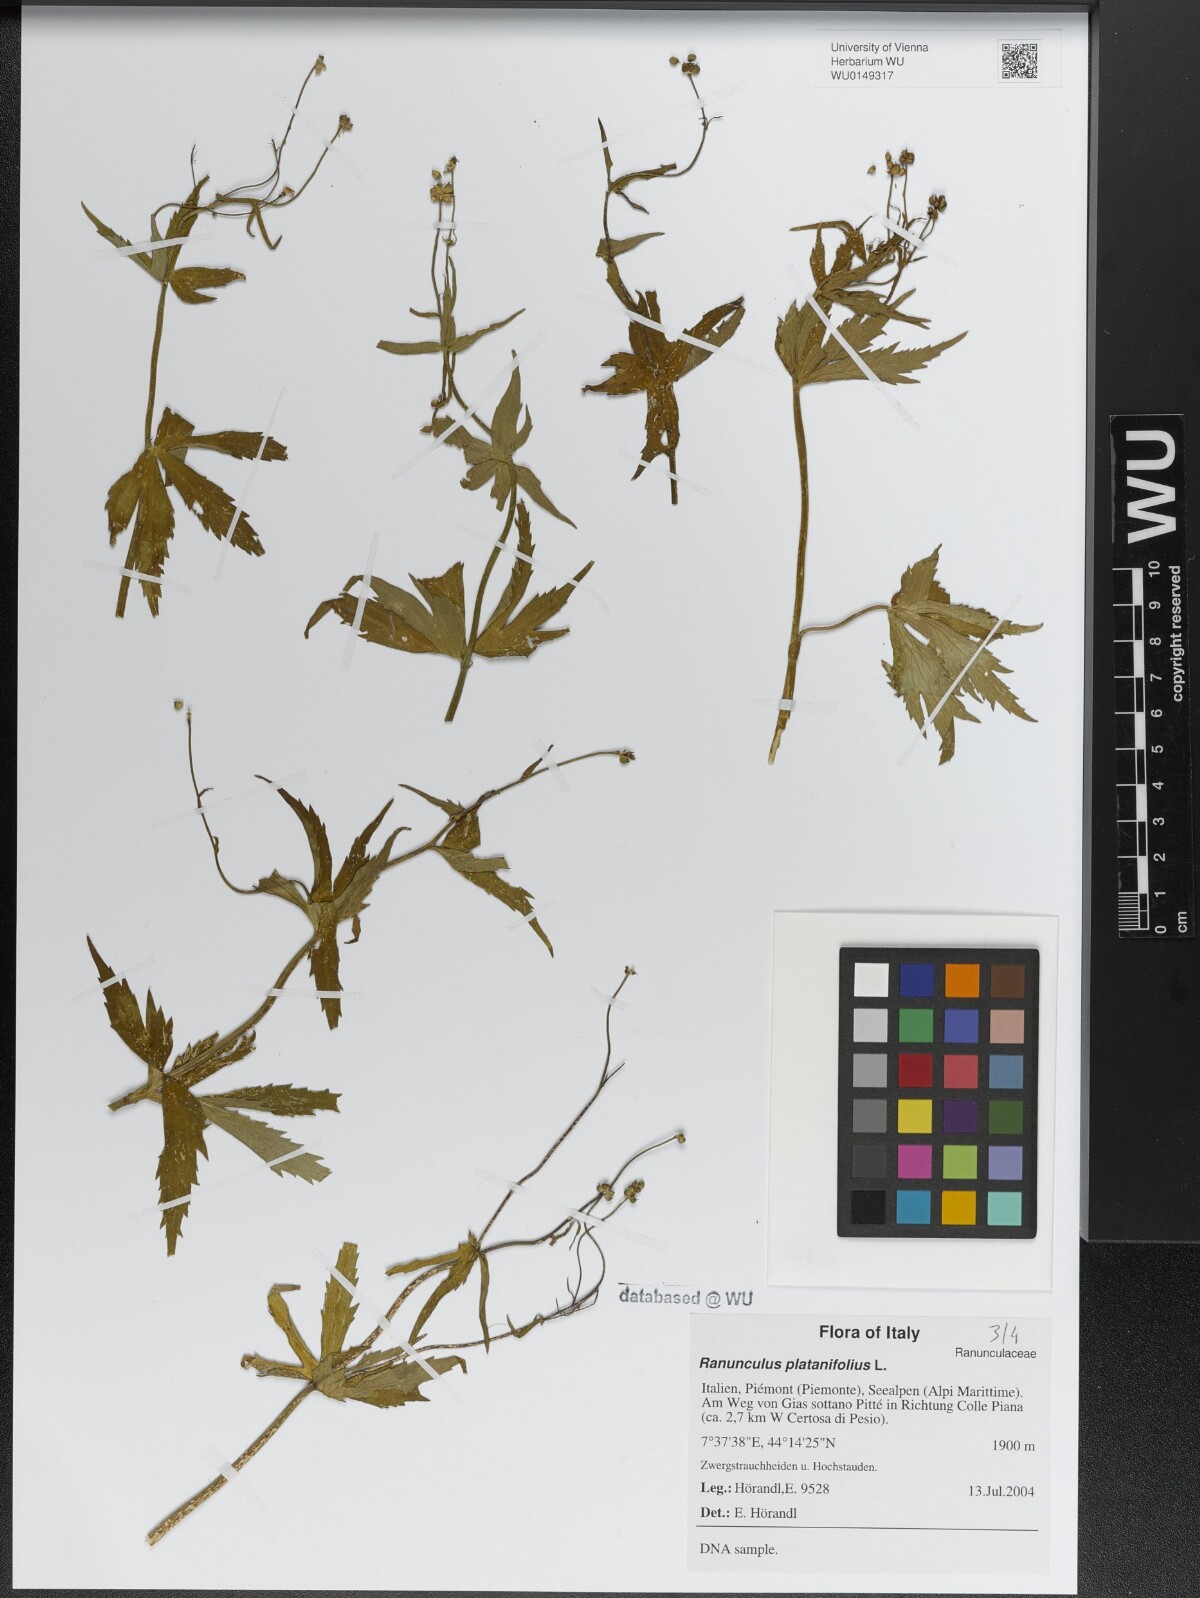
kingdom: Plantae
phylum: Tracheophyta
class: Magnoliopsida
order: Ranunculales
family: Ranunculaceae
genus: Ranunculus
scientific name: Ranunculus platanifolius
